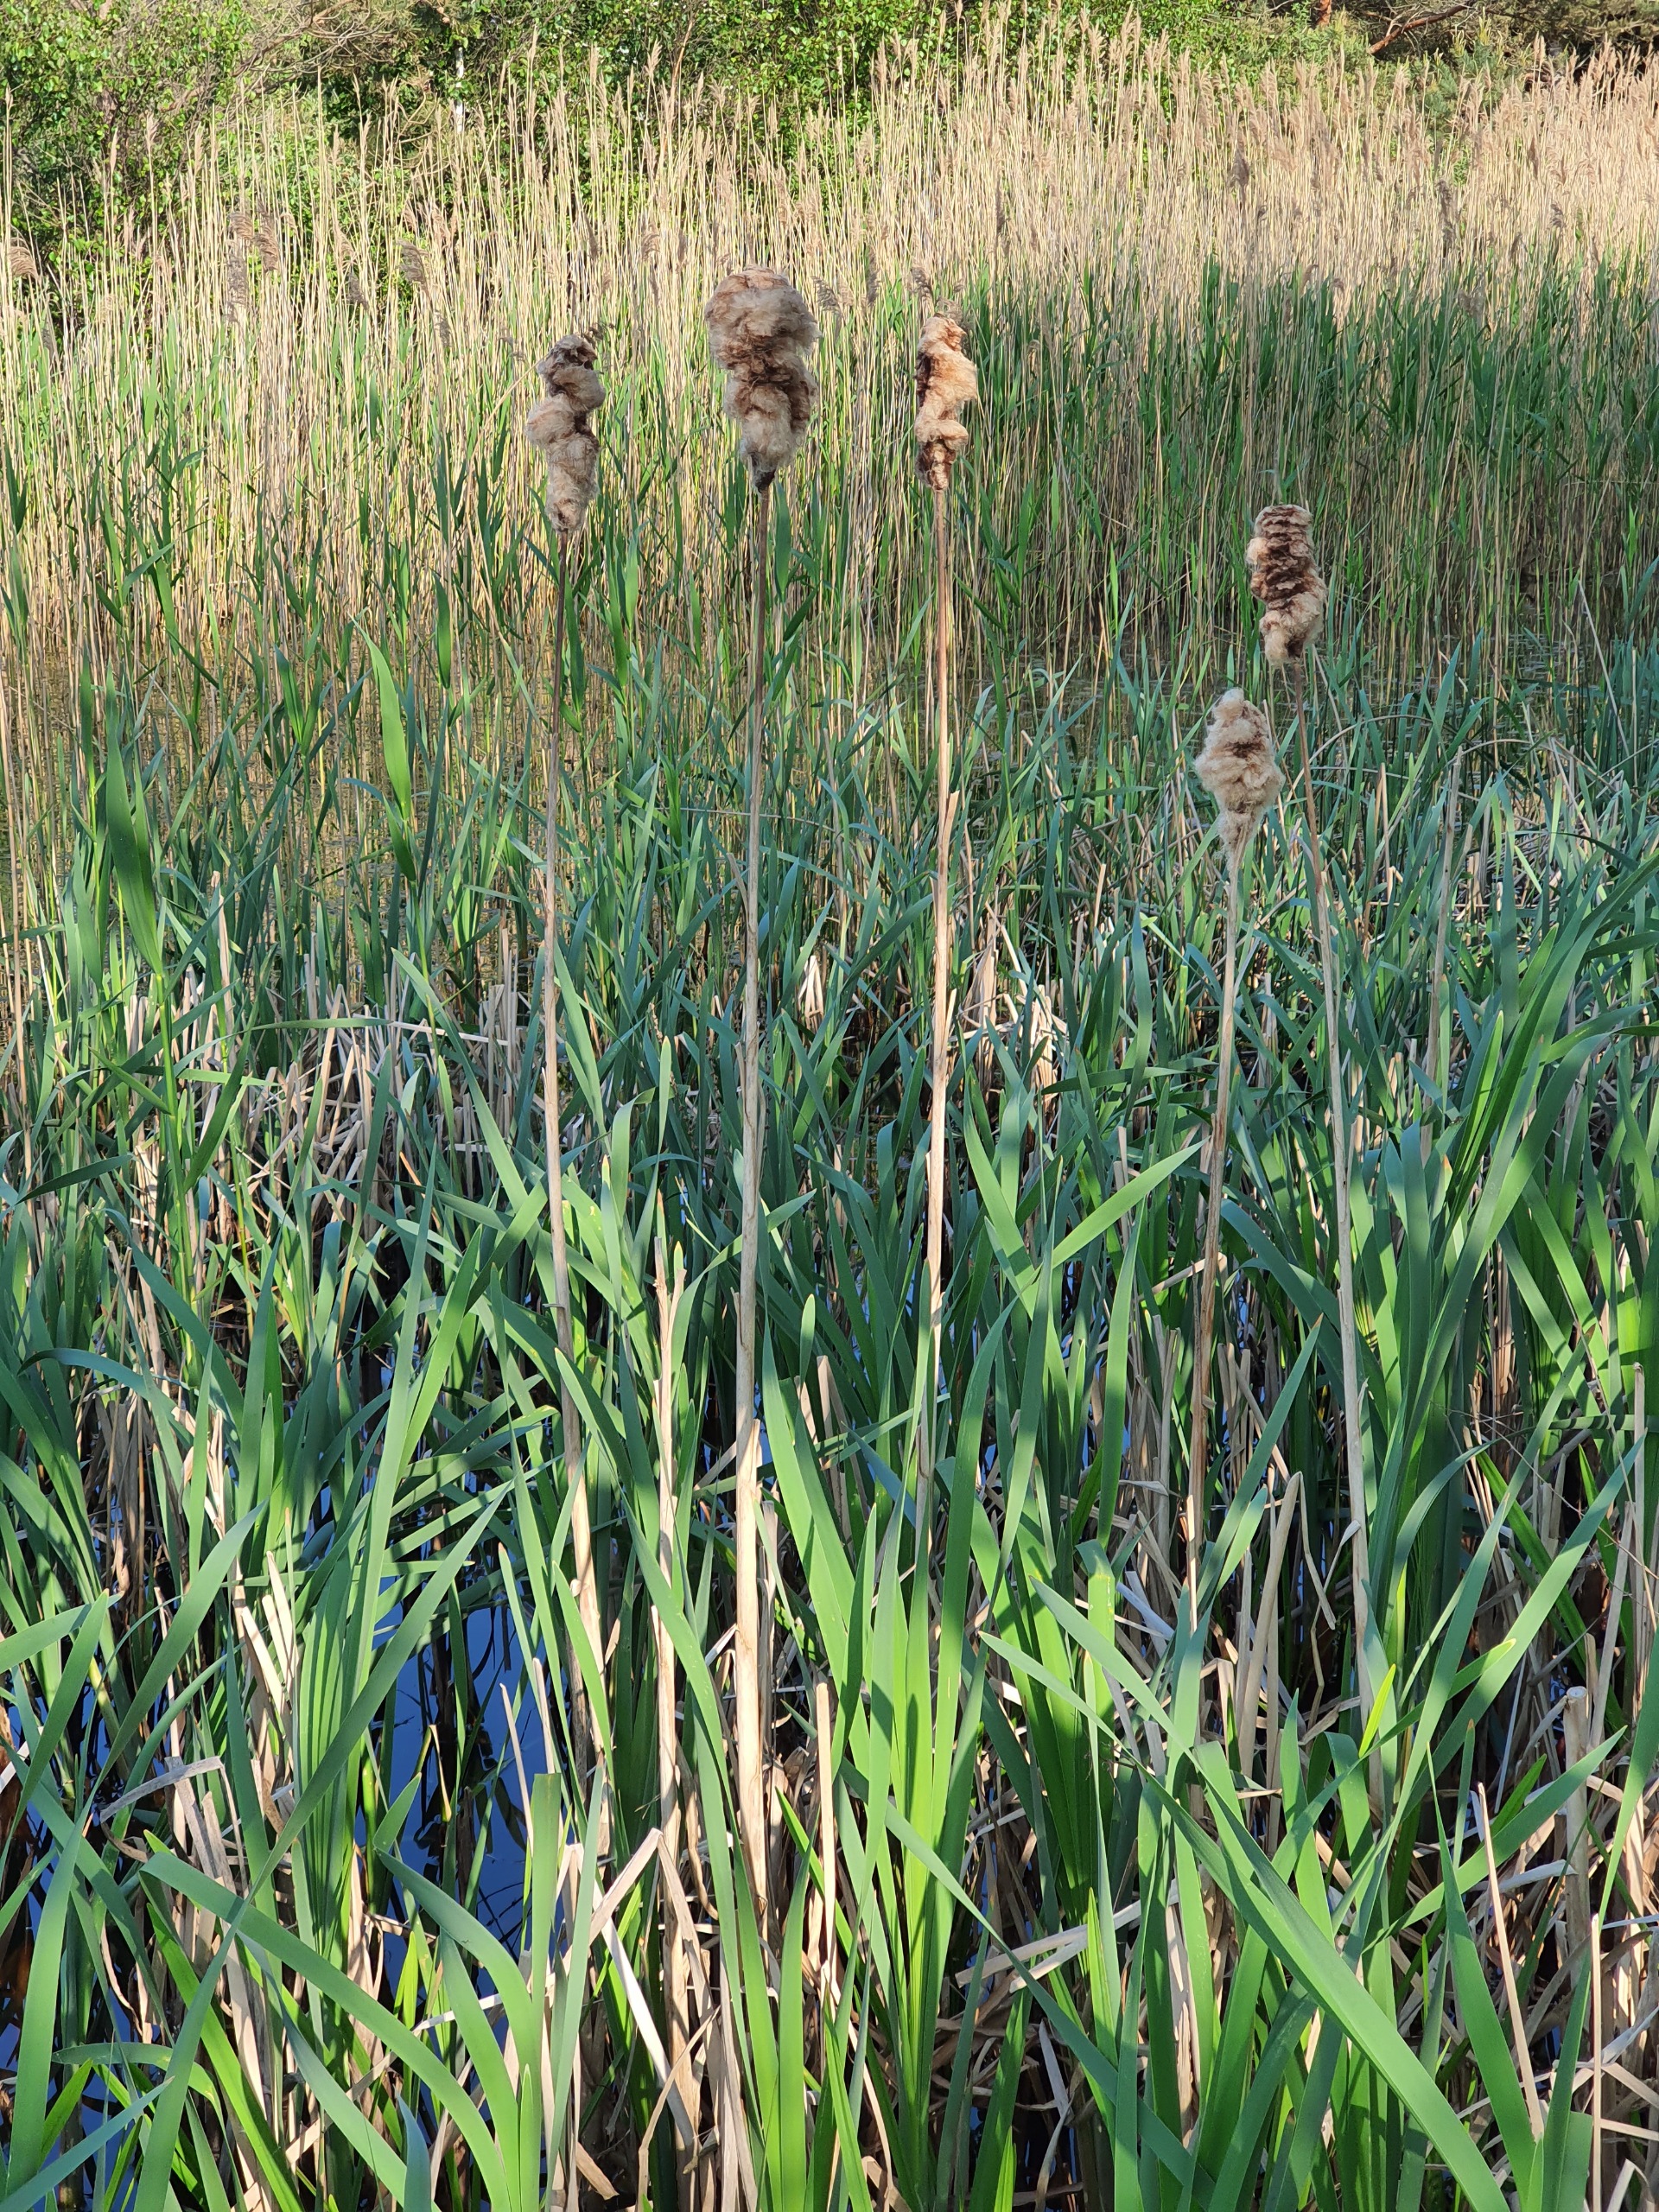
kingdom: Plantae
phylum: Tracheophyta
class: Liliopsida
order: Poales
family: Typhaceae
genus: Typha
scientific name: Typha latifolia
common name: Bredbladet dunhammer
